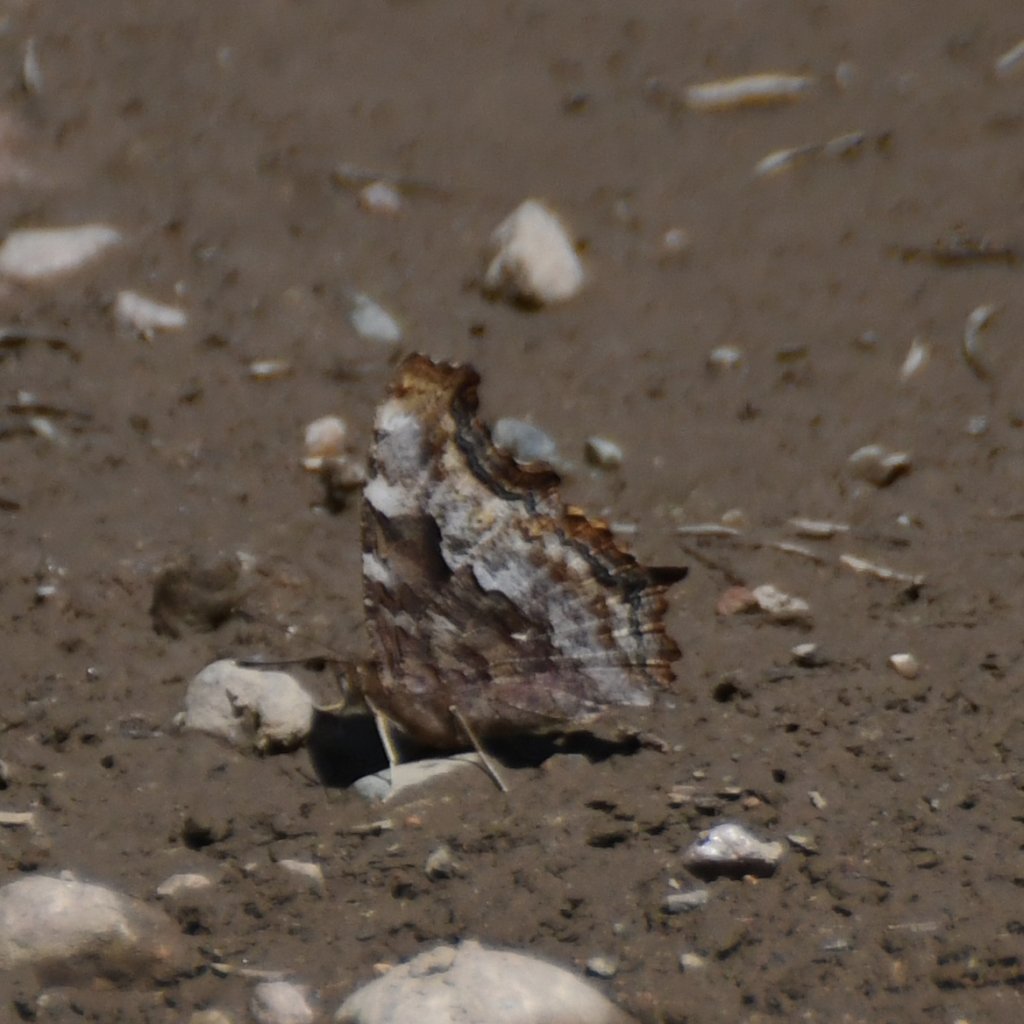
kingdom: Animalia
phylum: Arthropoda
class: Insecta
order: Lepidoptera
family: Nymphalidae
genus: Polygonia
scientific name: Polygonia vaualbum
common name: Compton Tortoiseshell
